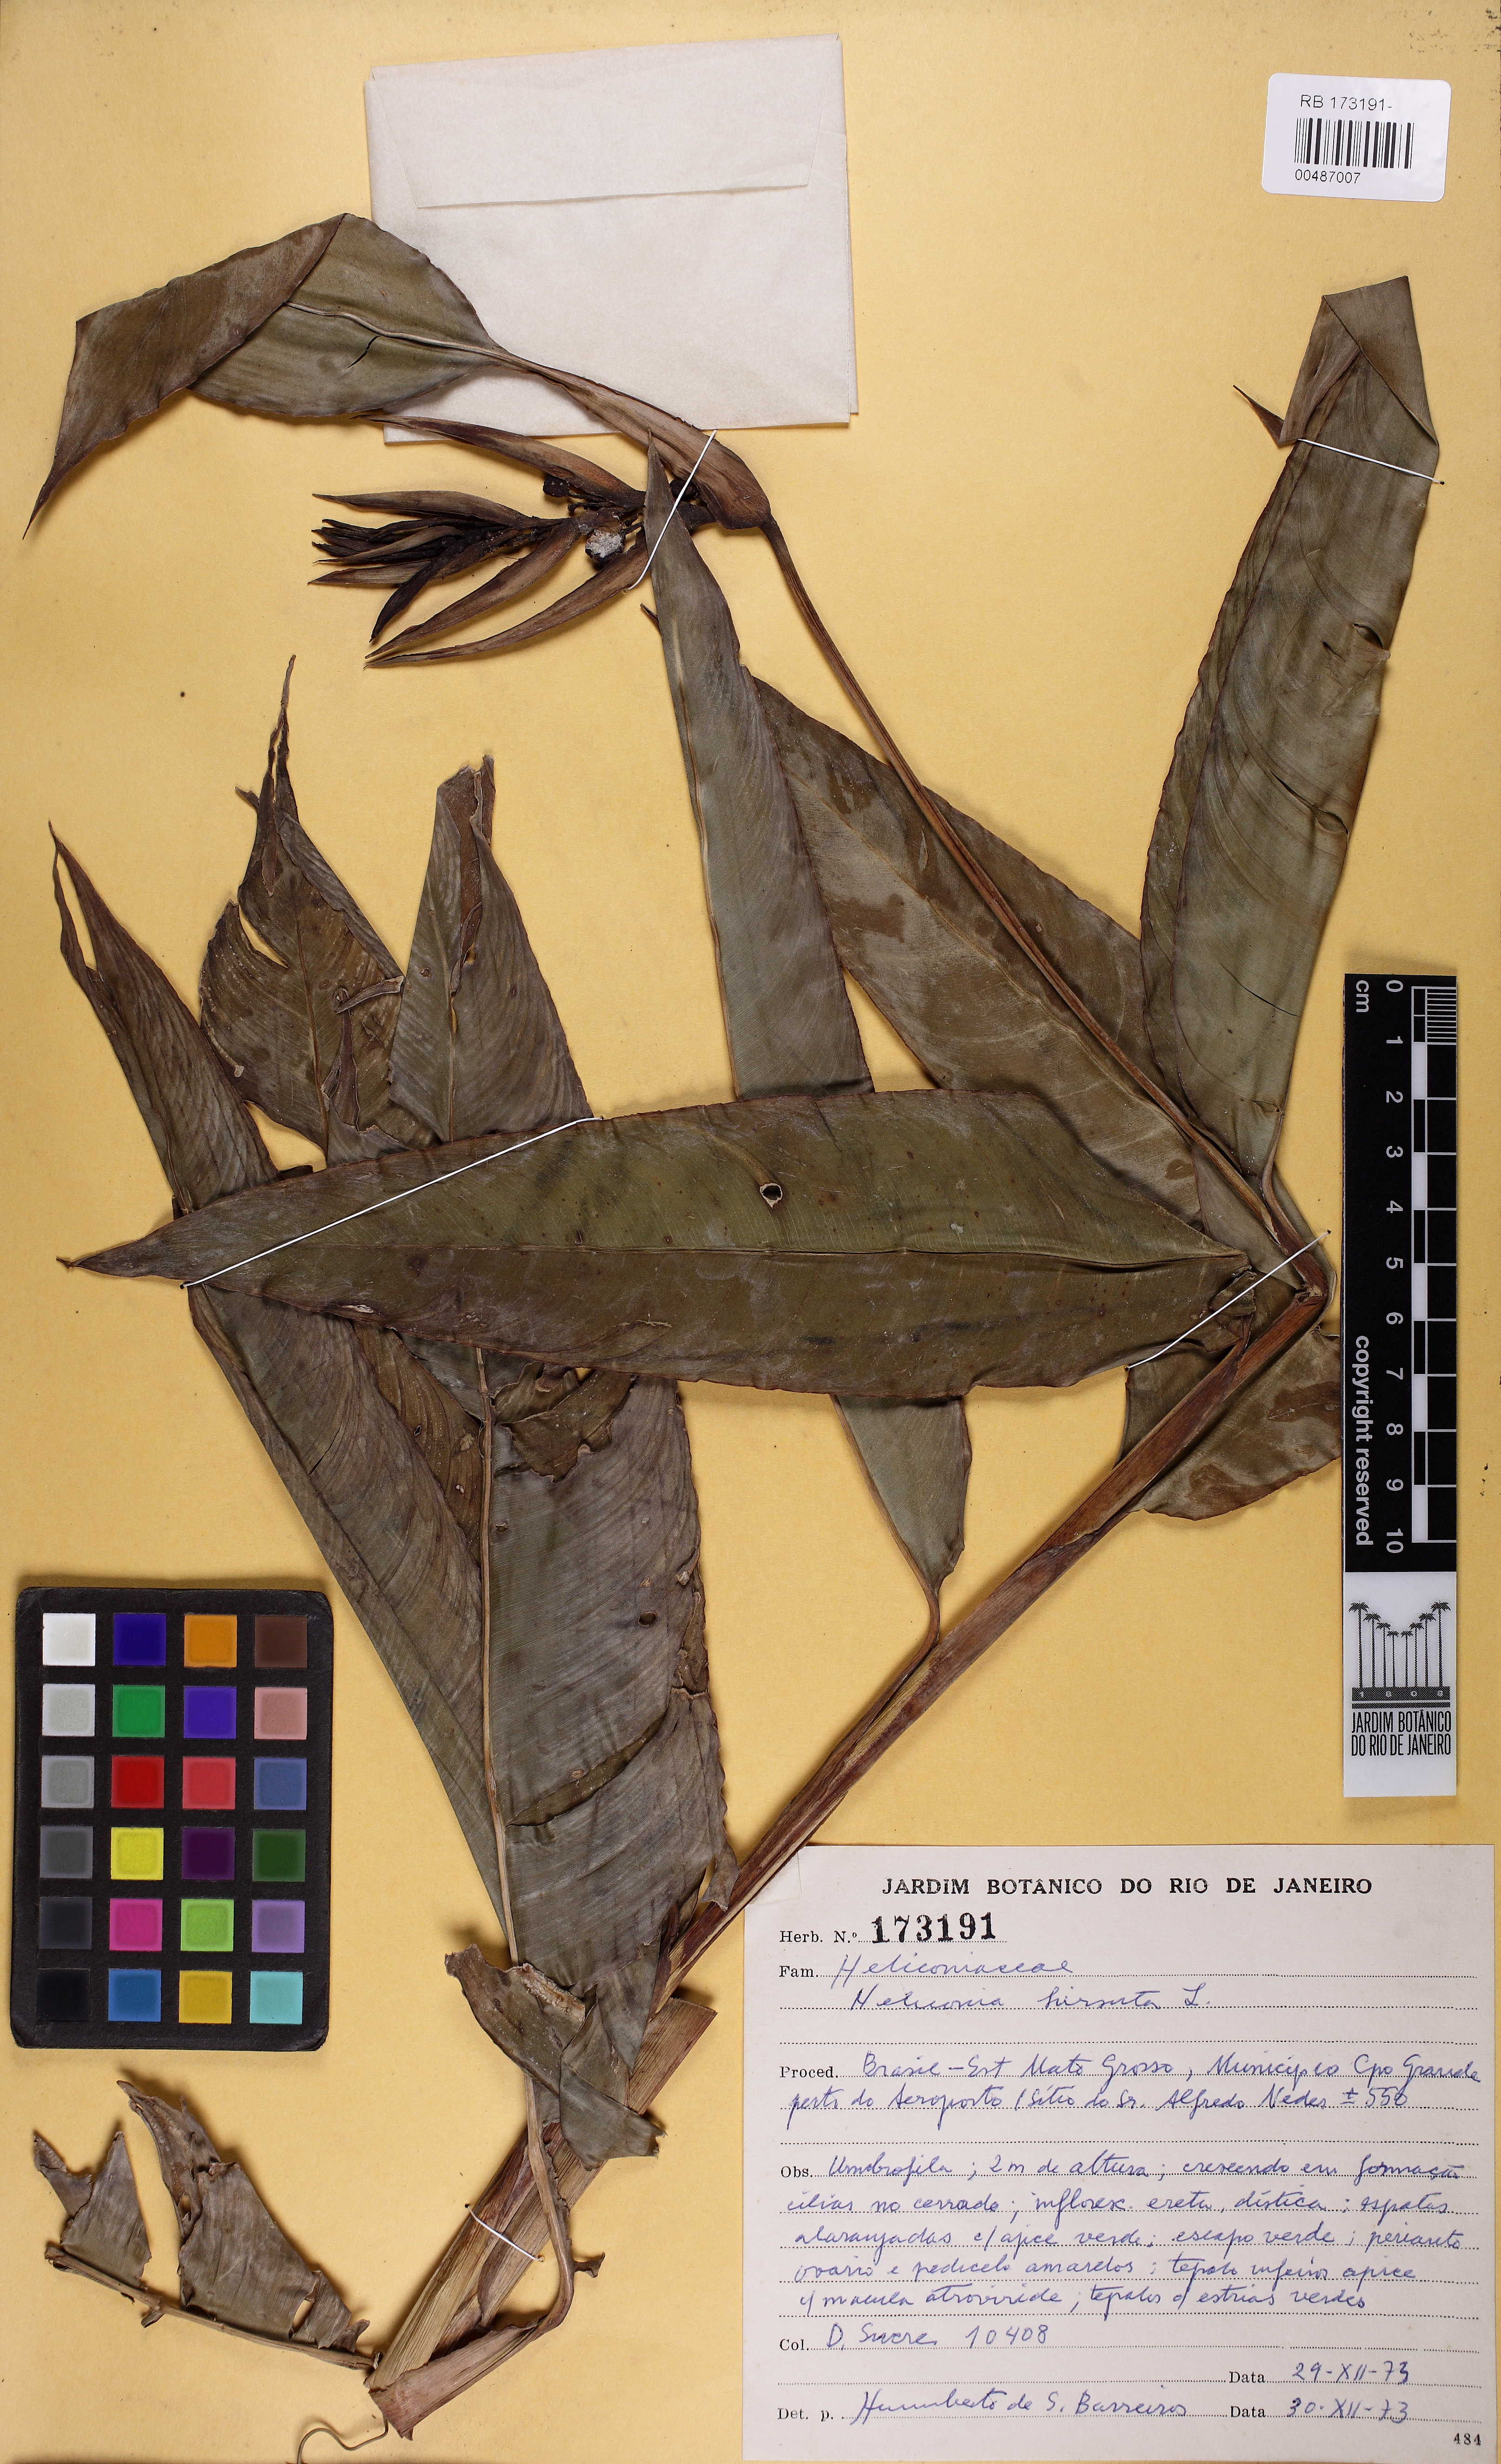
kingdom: Plantae
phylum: Tracheophyta
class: Liliopsida
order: Zingiberales
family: Heliconiaceae
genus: Heliconia
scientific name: Heliconia hirsuta
